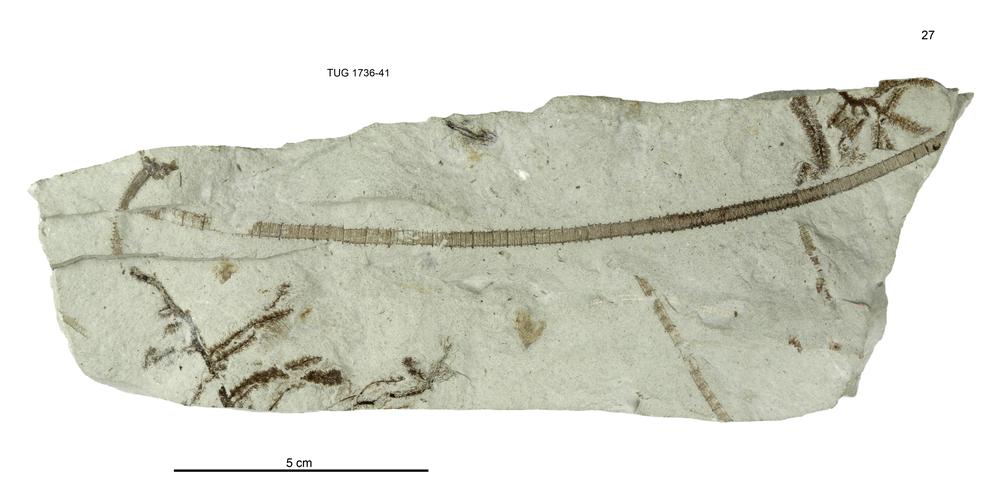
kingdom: Animalia
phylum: Echinodermata
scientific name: Echinodermata
